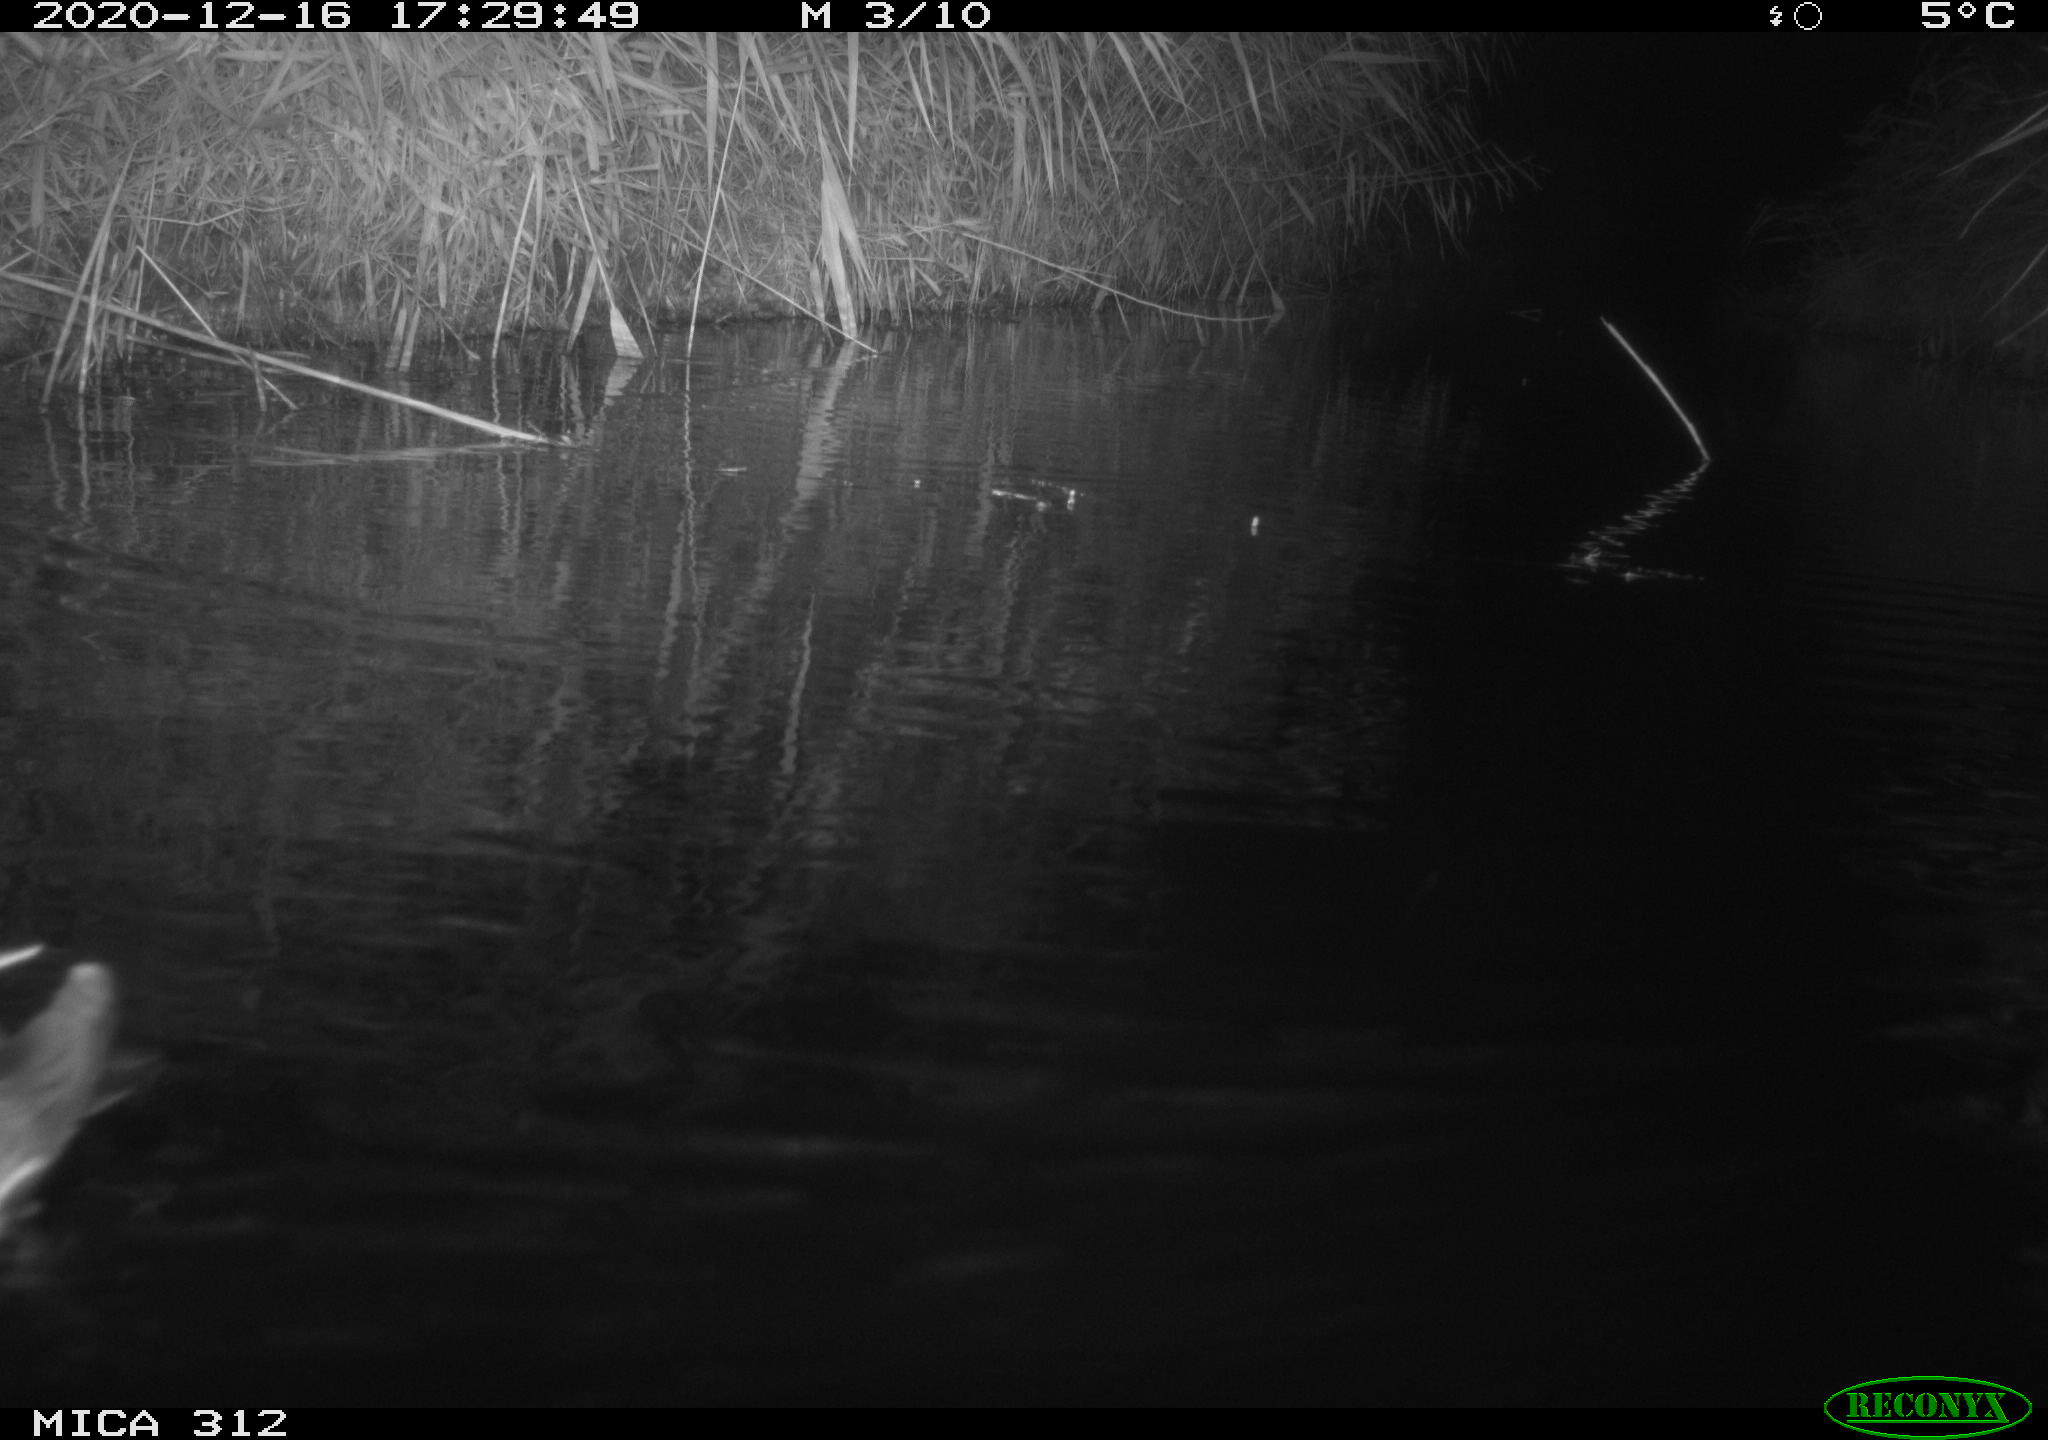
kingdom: Animalia
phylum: Chordata
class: Aves
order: Gruiformes
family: Rallidae
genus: Gallinula
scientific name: Gallinula chloropus
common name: Common moorhen
